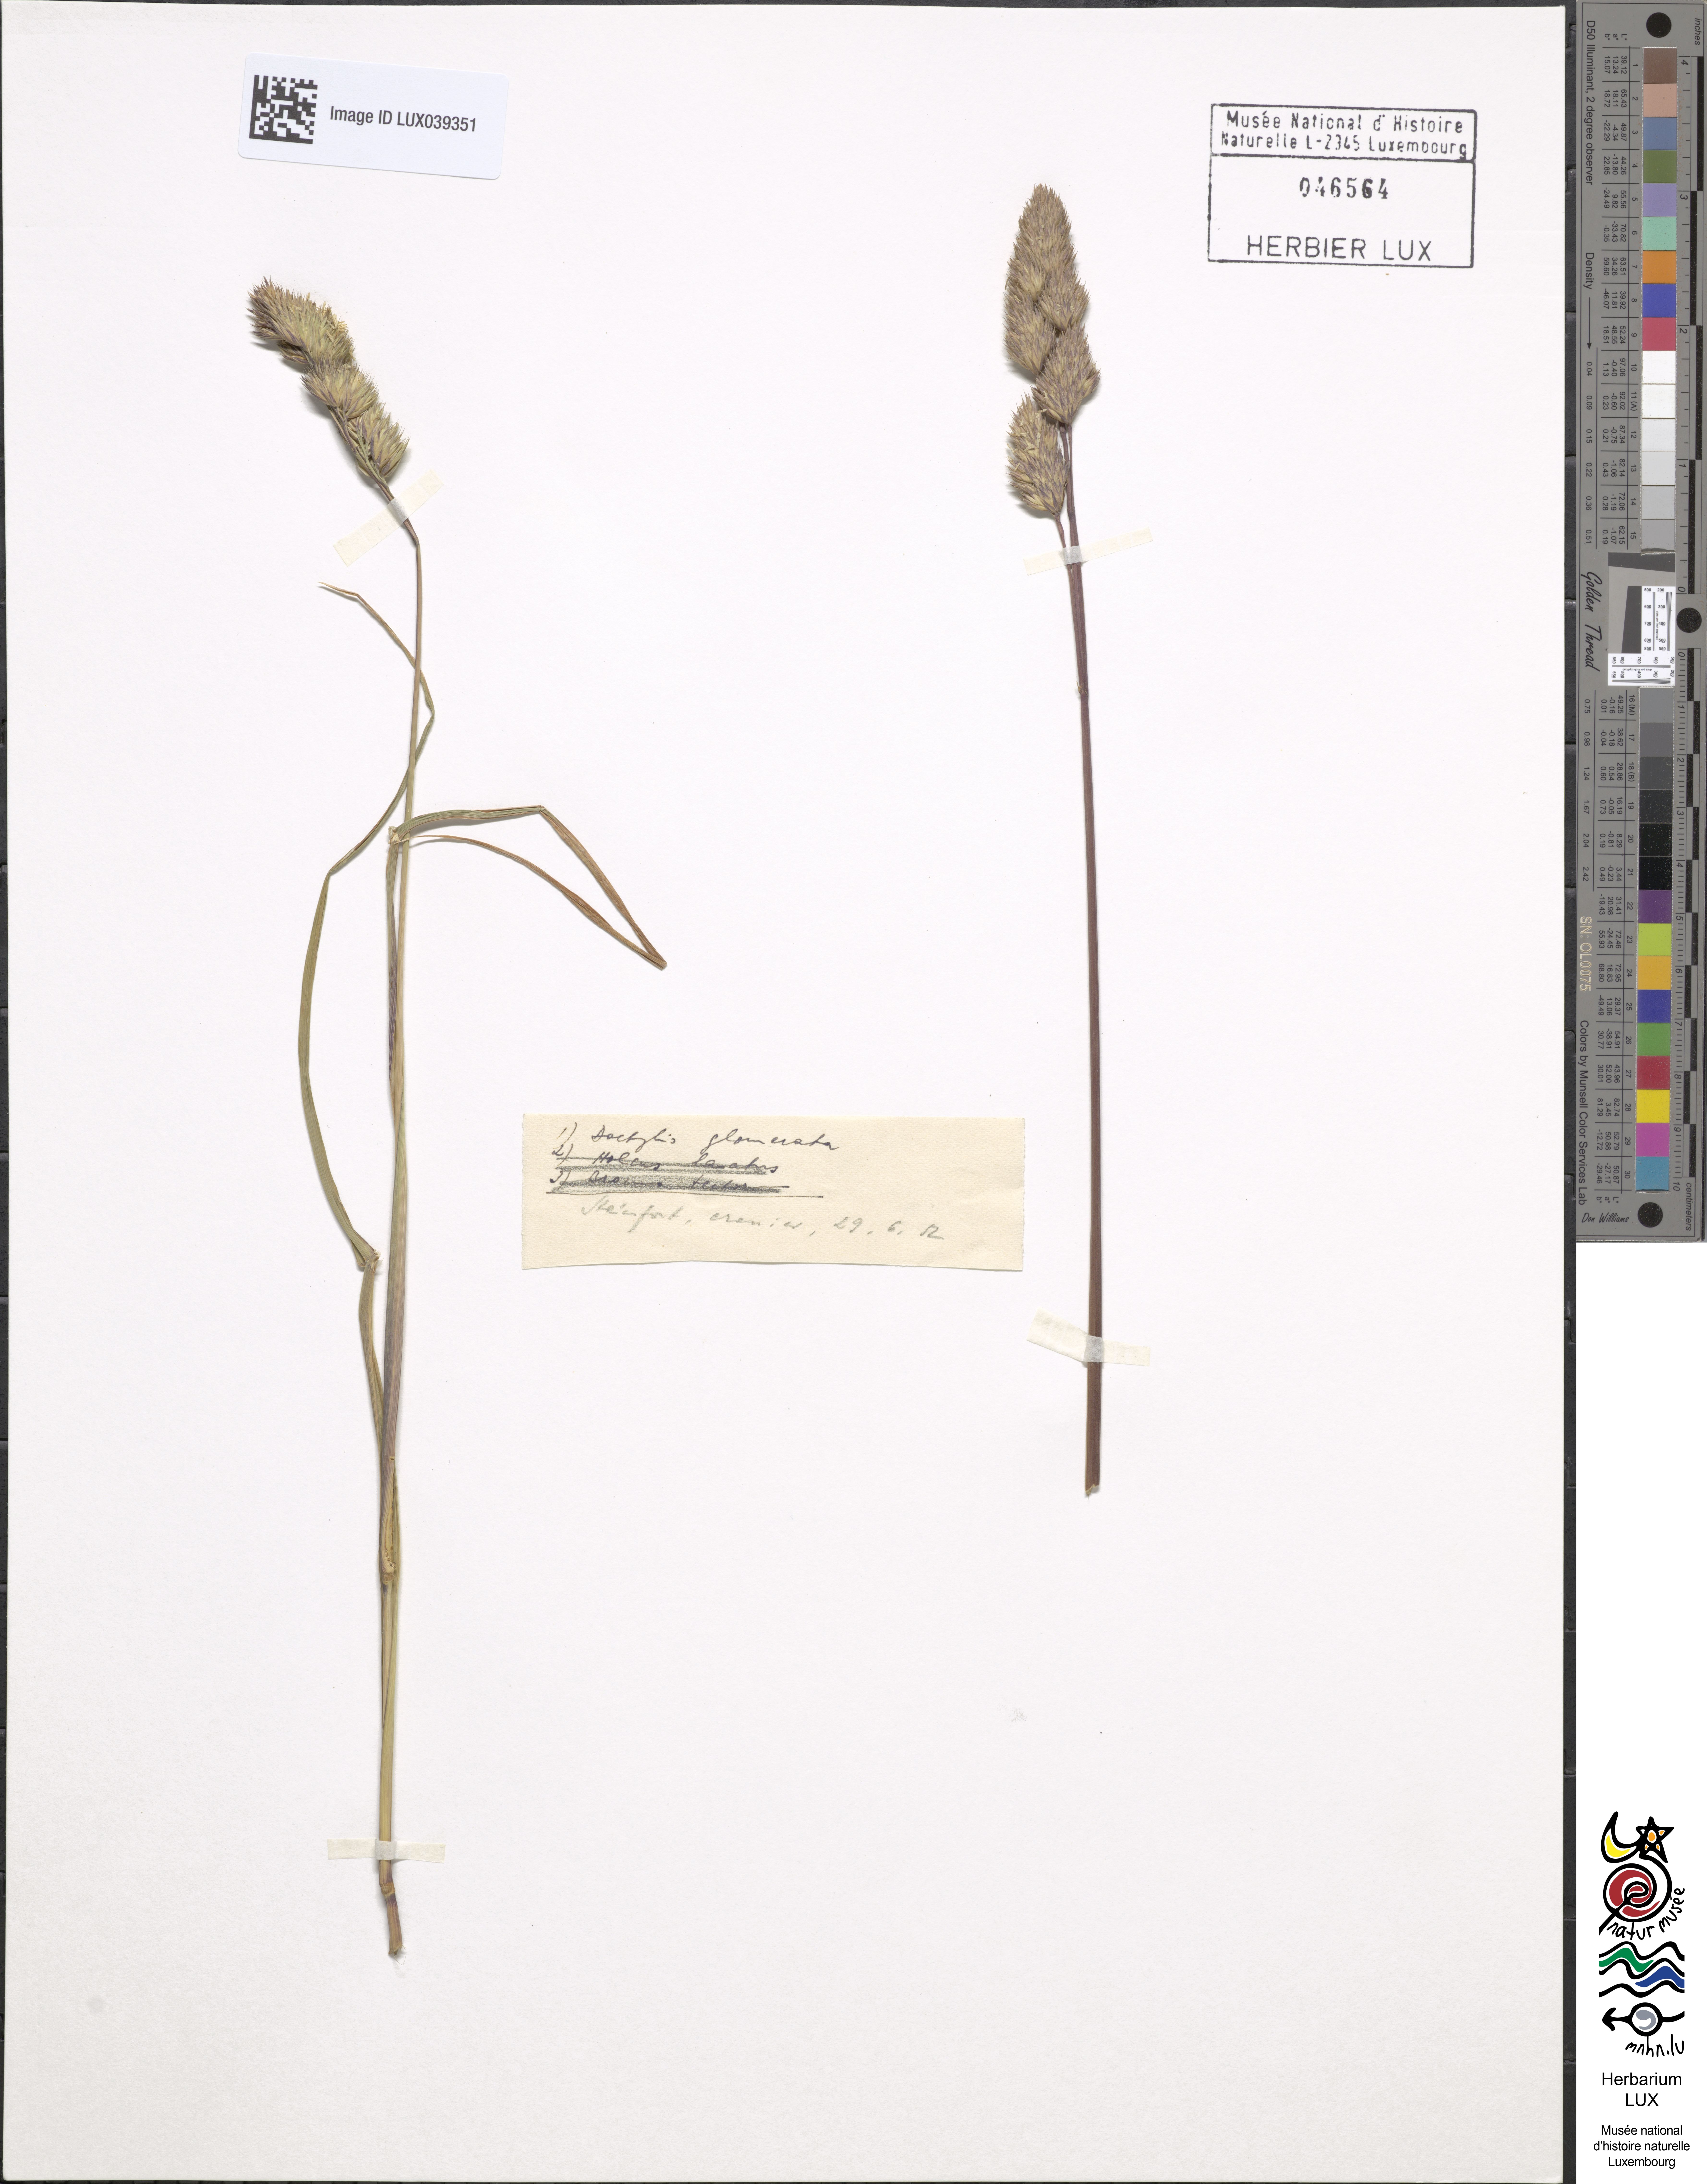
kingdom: Plantae
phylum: Tracheophyta
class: Liliopsida
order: Poales
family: Poaceae
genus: Dactylis
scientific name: Dactylis glomerata
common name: Orchardgrass
